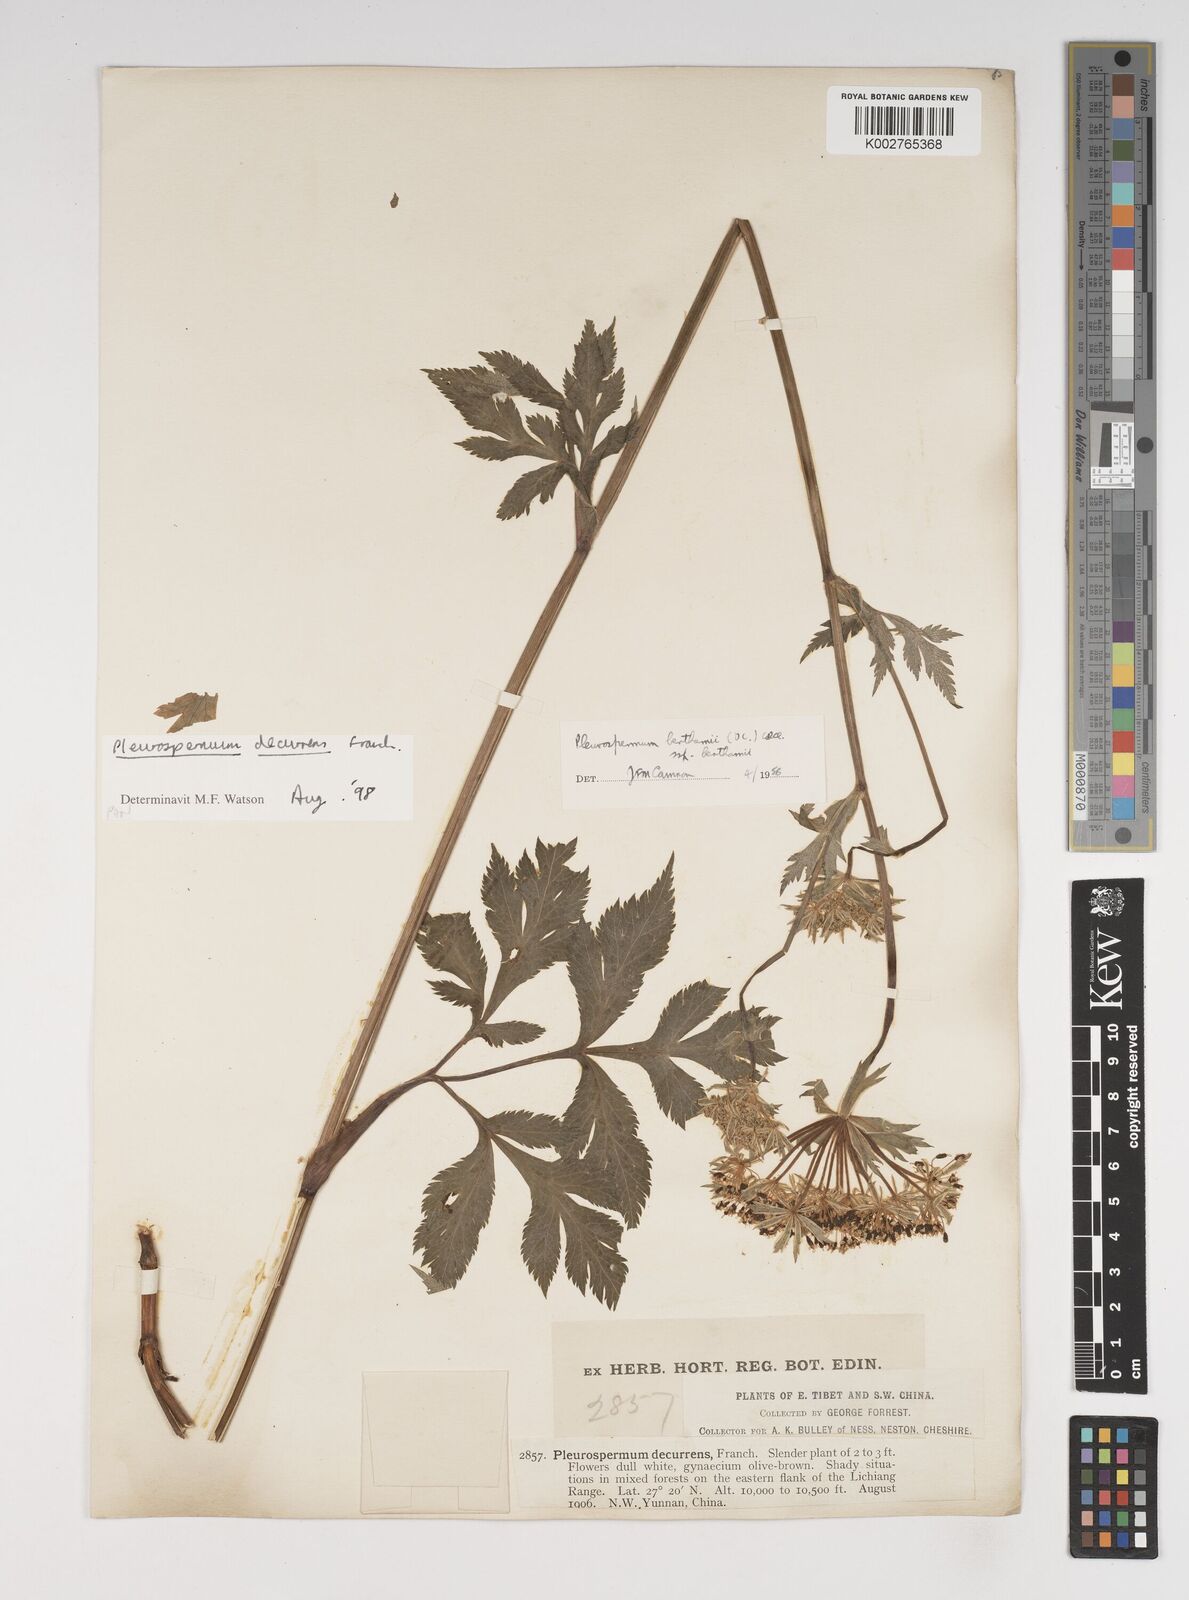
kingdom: Plantae
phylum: Tracheophyta
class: Magnoliopsida
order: Apiales
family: Apiaceae
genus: Hymenidium
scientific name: Hymenidium decurrens
